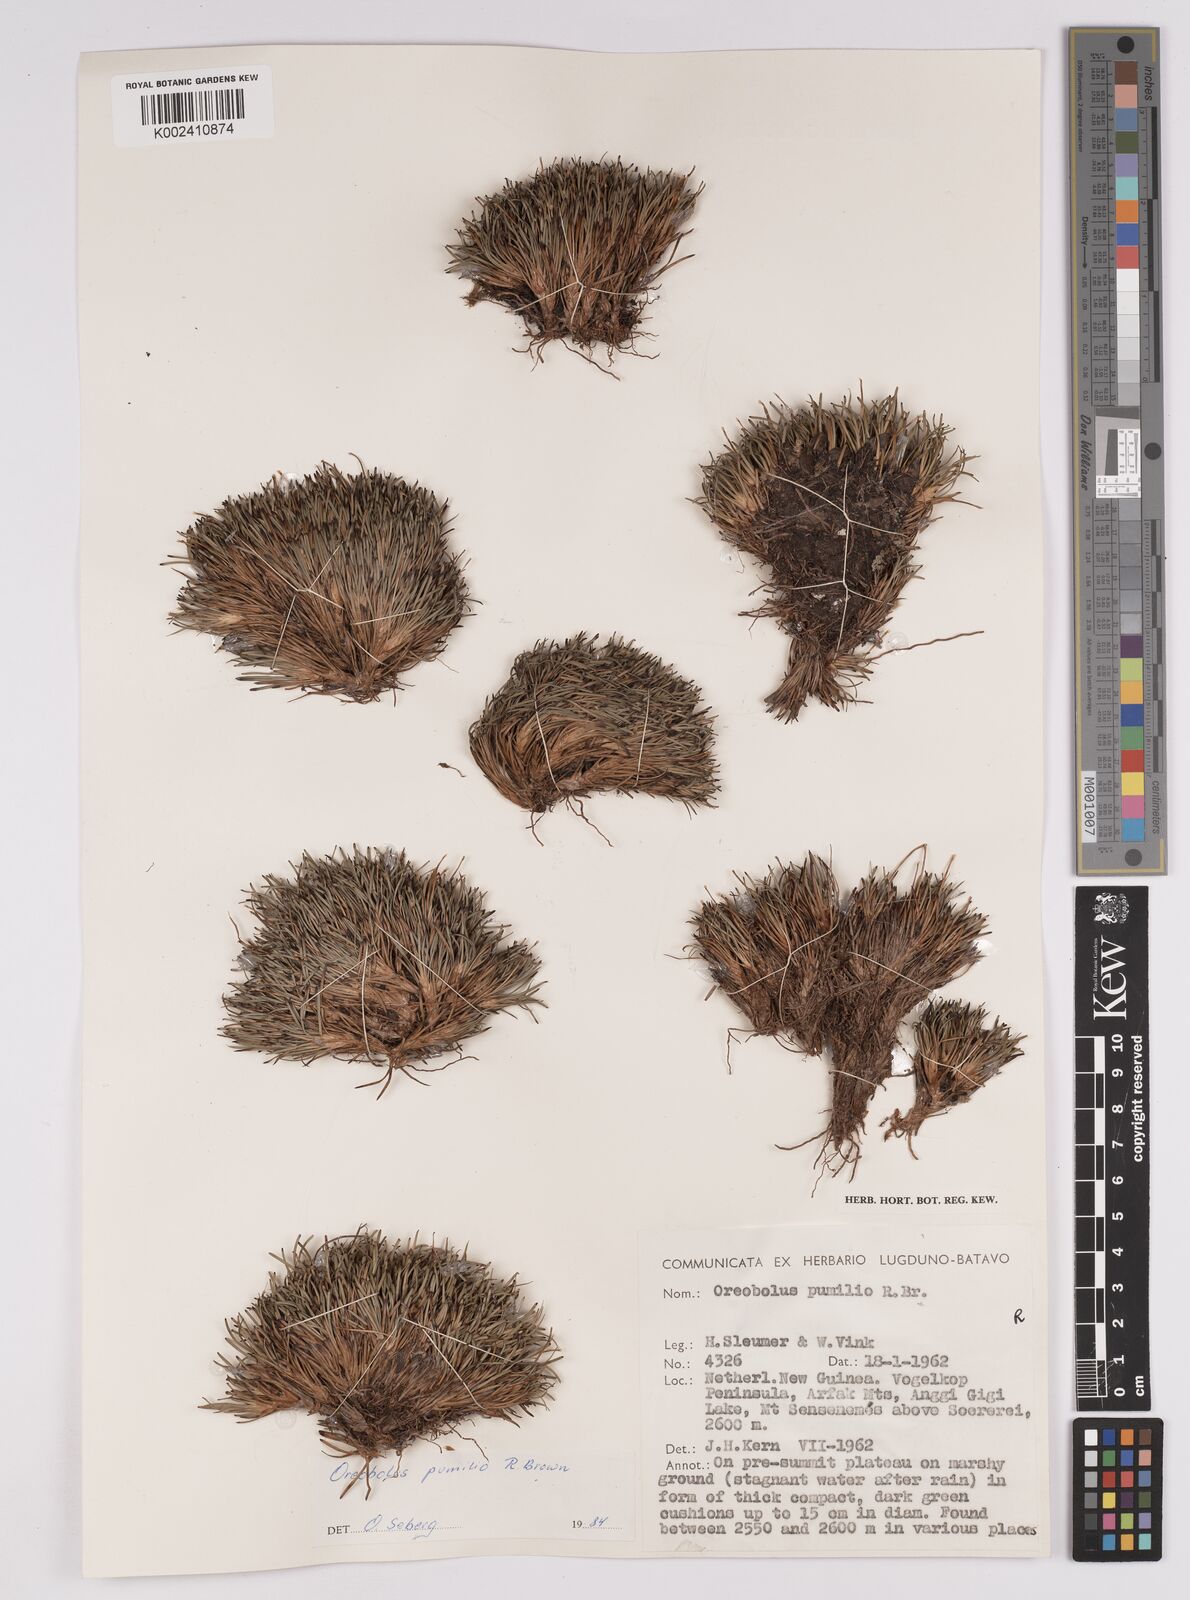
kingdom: Plantae
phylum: Tracheophyta
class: Liliopsida
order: Poales
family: Cyperaceae
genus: Oreobolus
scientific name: Oreobolus pumilio
